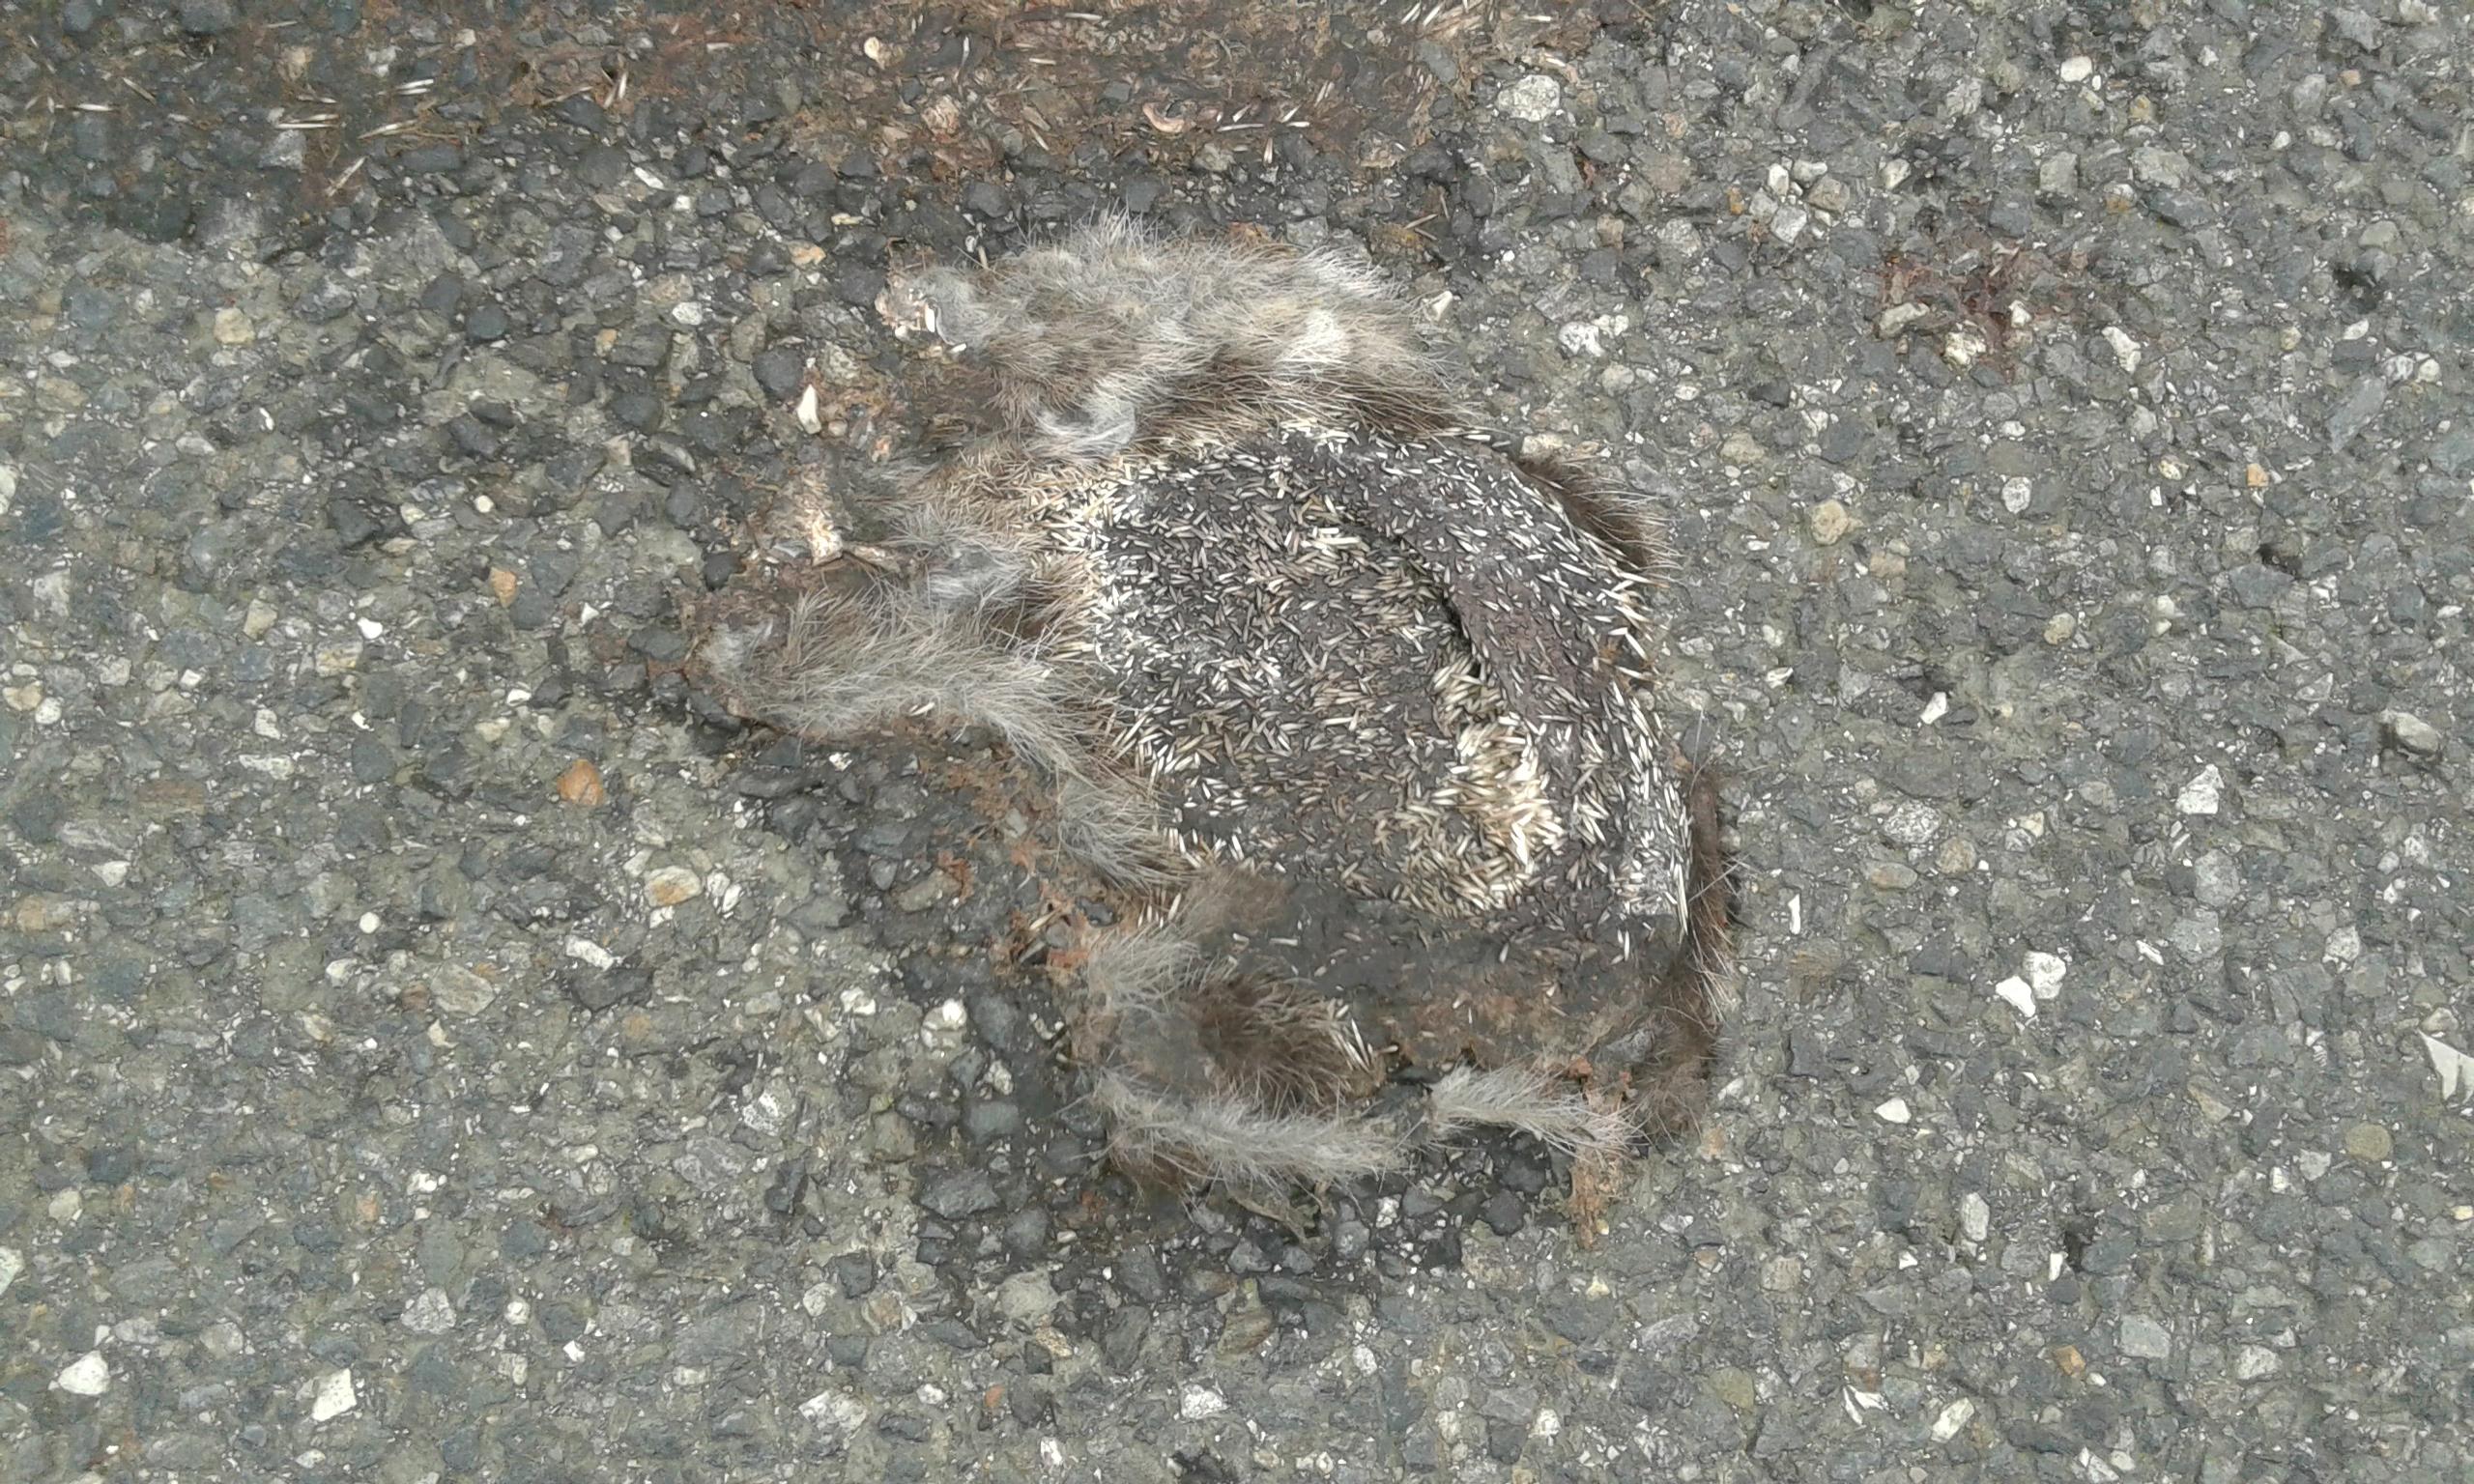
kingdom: Animalia
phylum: Chordata
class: Mammalia
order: Erinaceomorpha
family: Erinaceidae
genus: Erinaceus
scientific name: Erinaceus
